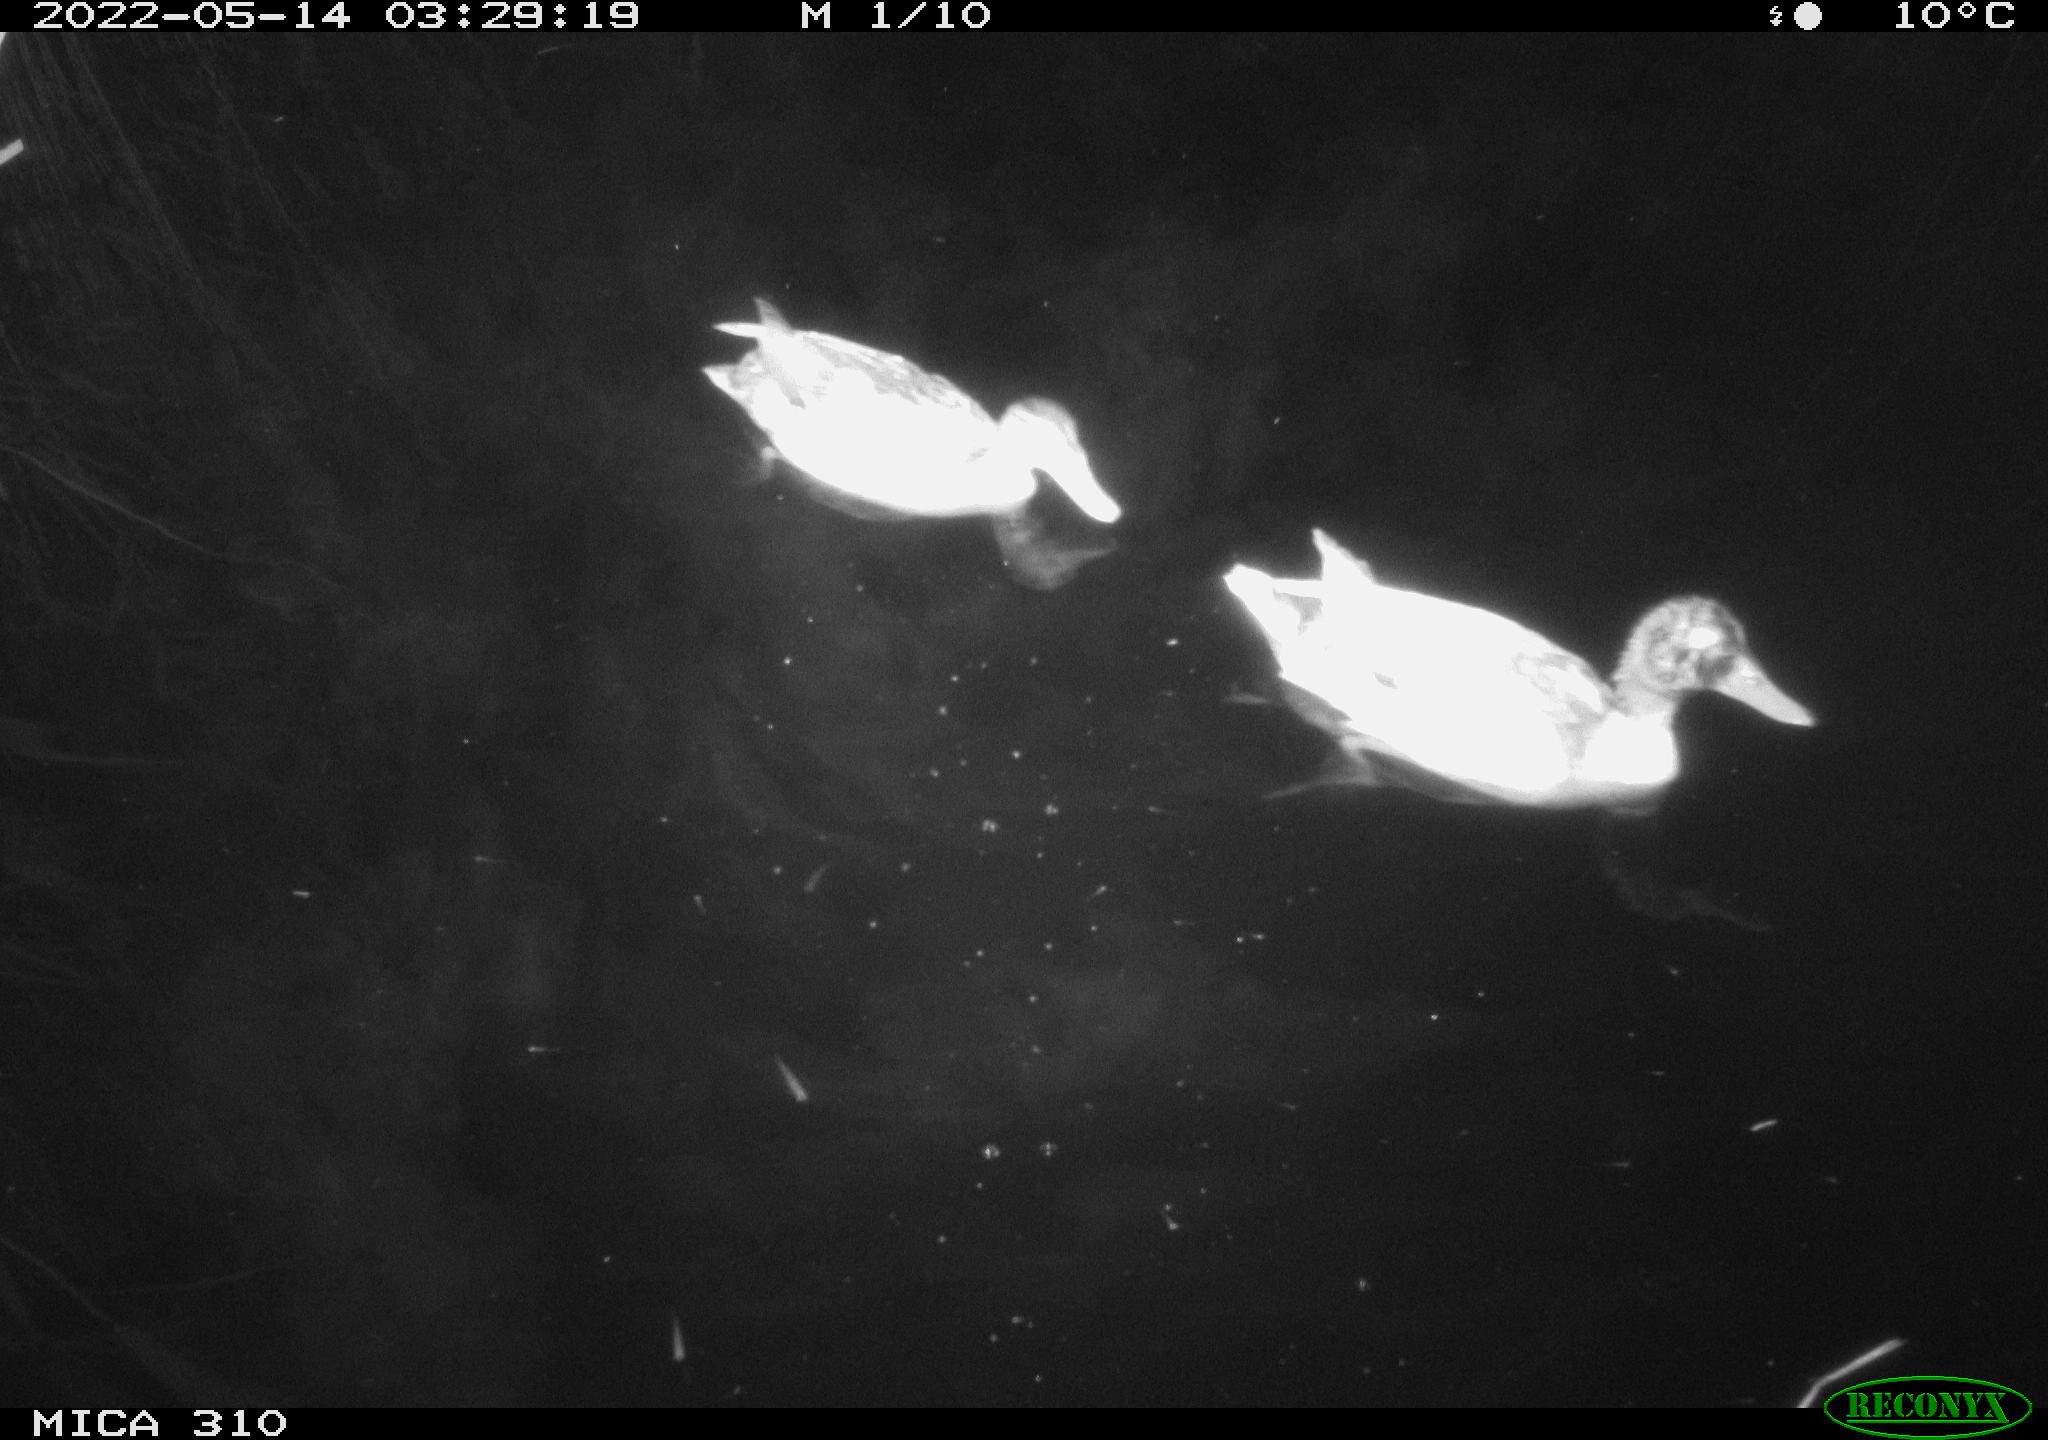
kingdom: Animalia
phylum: Chordata
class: Aves
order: Anseriformes
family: Anatidae
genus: Anas
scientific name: Anas platyrhynchos
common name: Mallard
